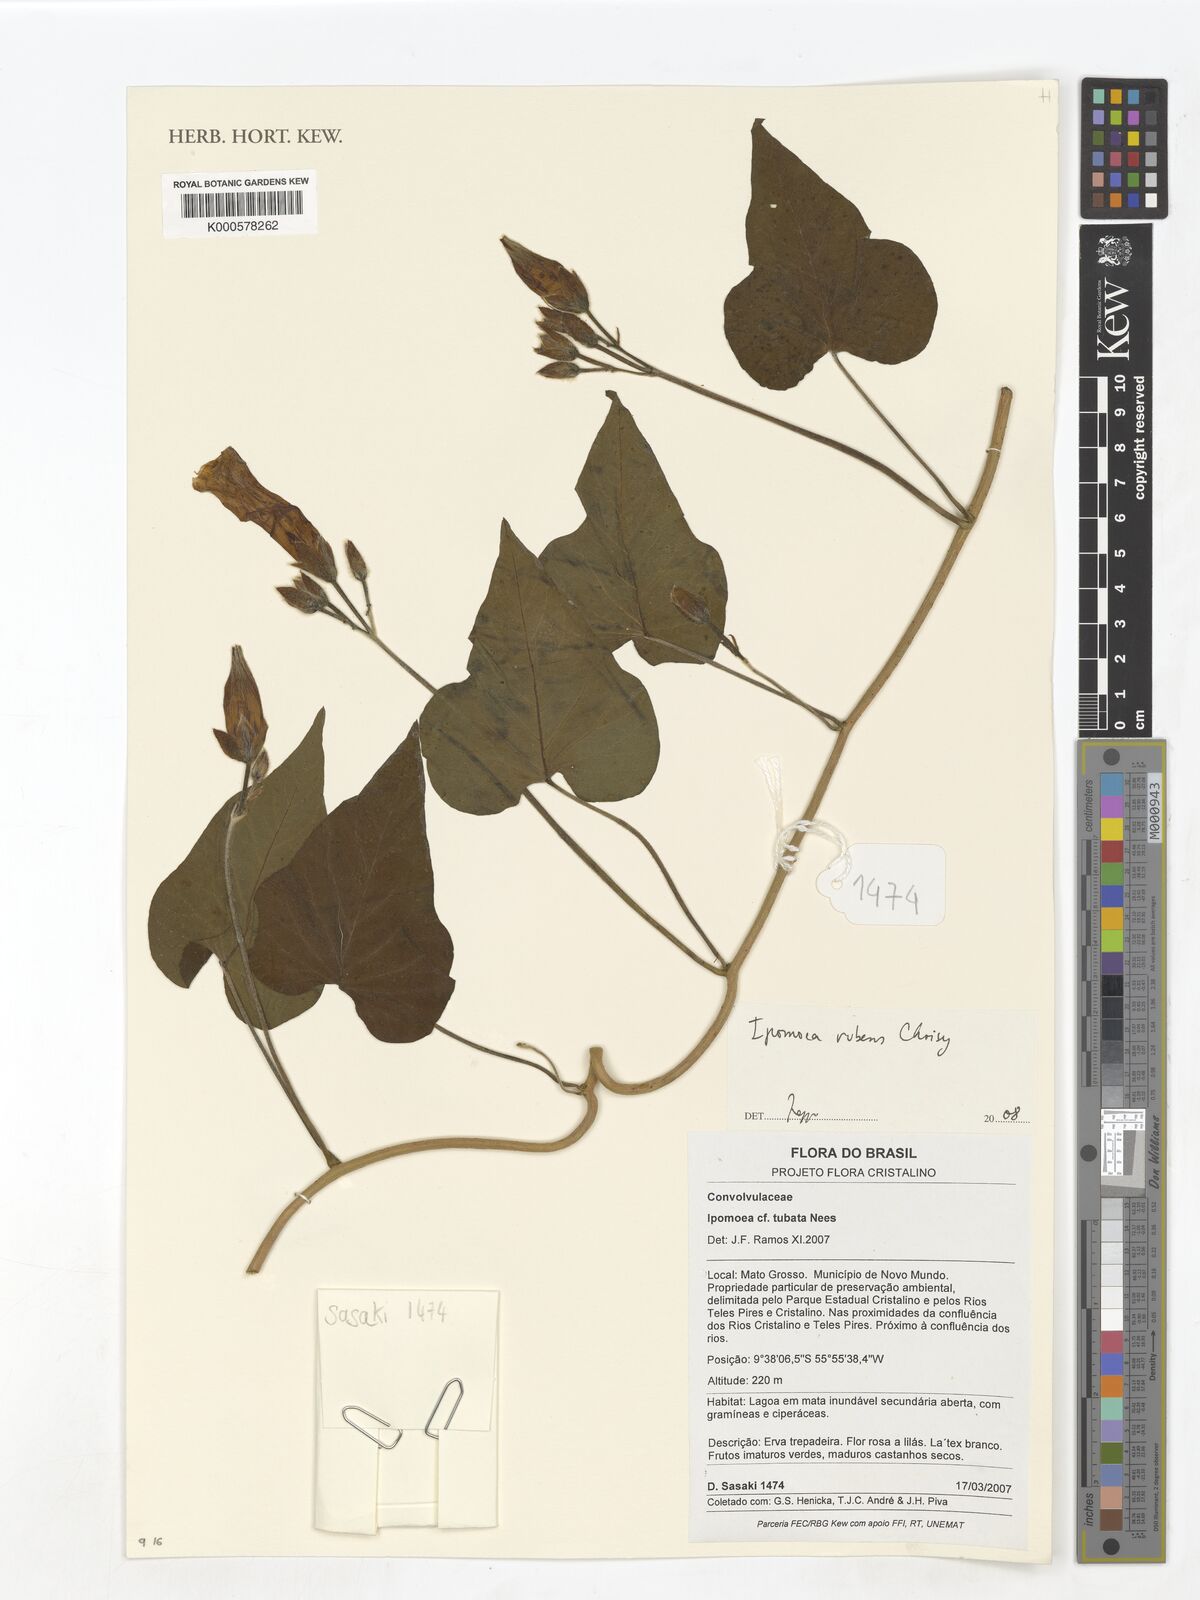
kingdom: Plantae
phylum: Tracheophyta
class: Magnoliopsida
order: Solanales
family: Convolvulaceae
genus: Ipomoea
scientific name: Ipomoea rubens
